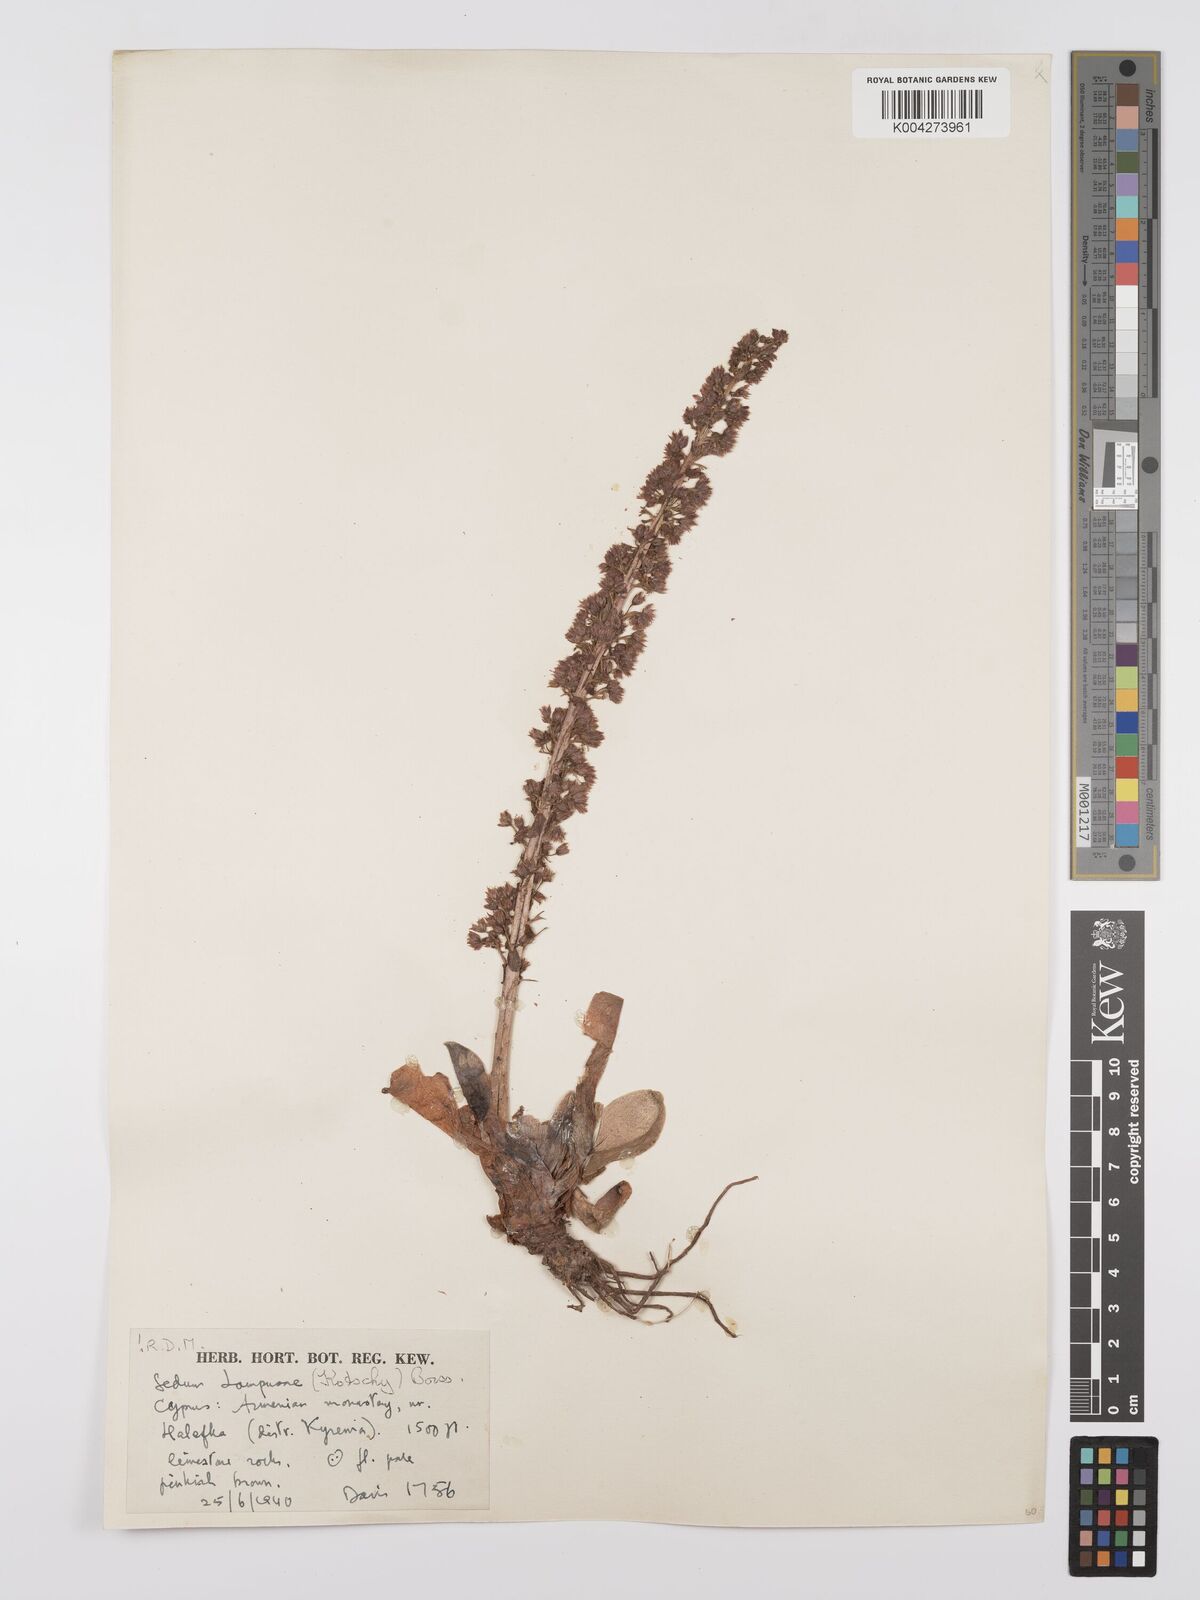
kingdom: Plantae
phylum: Tracheophyta
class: Magnoliopsida
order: Saxifragales
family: Crassulaceae
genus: Sedum
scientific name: Sedum lampusae
